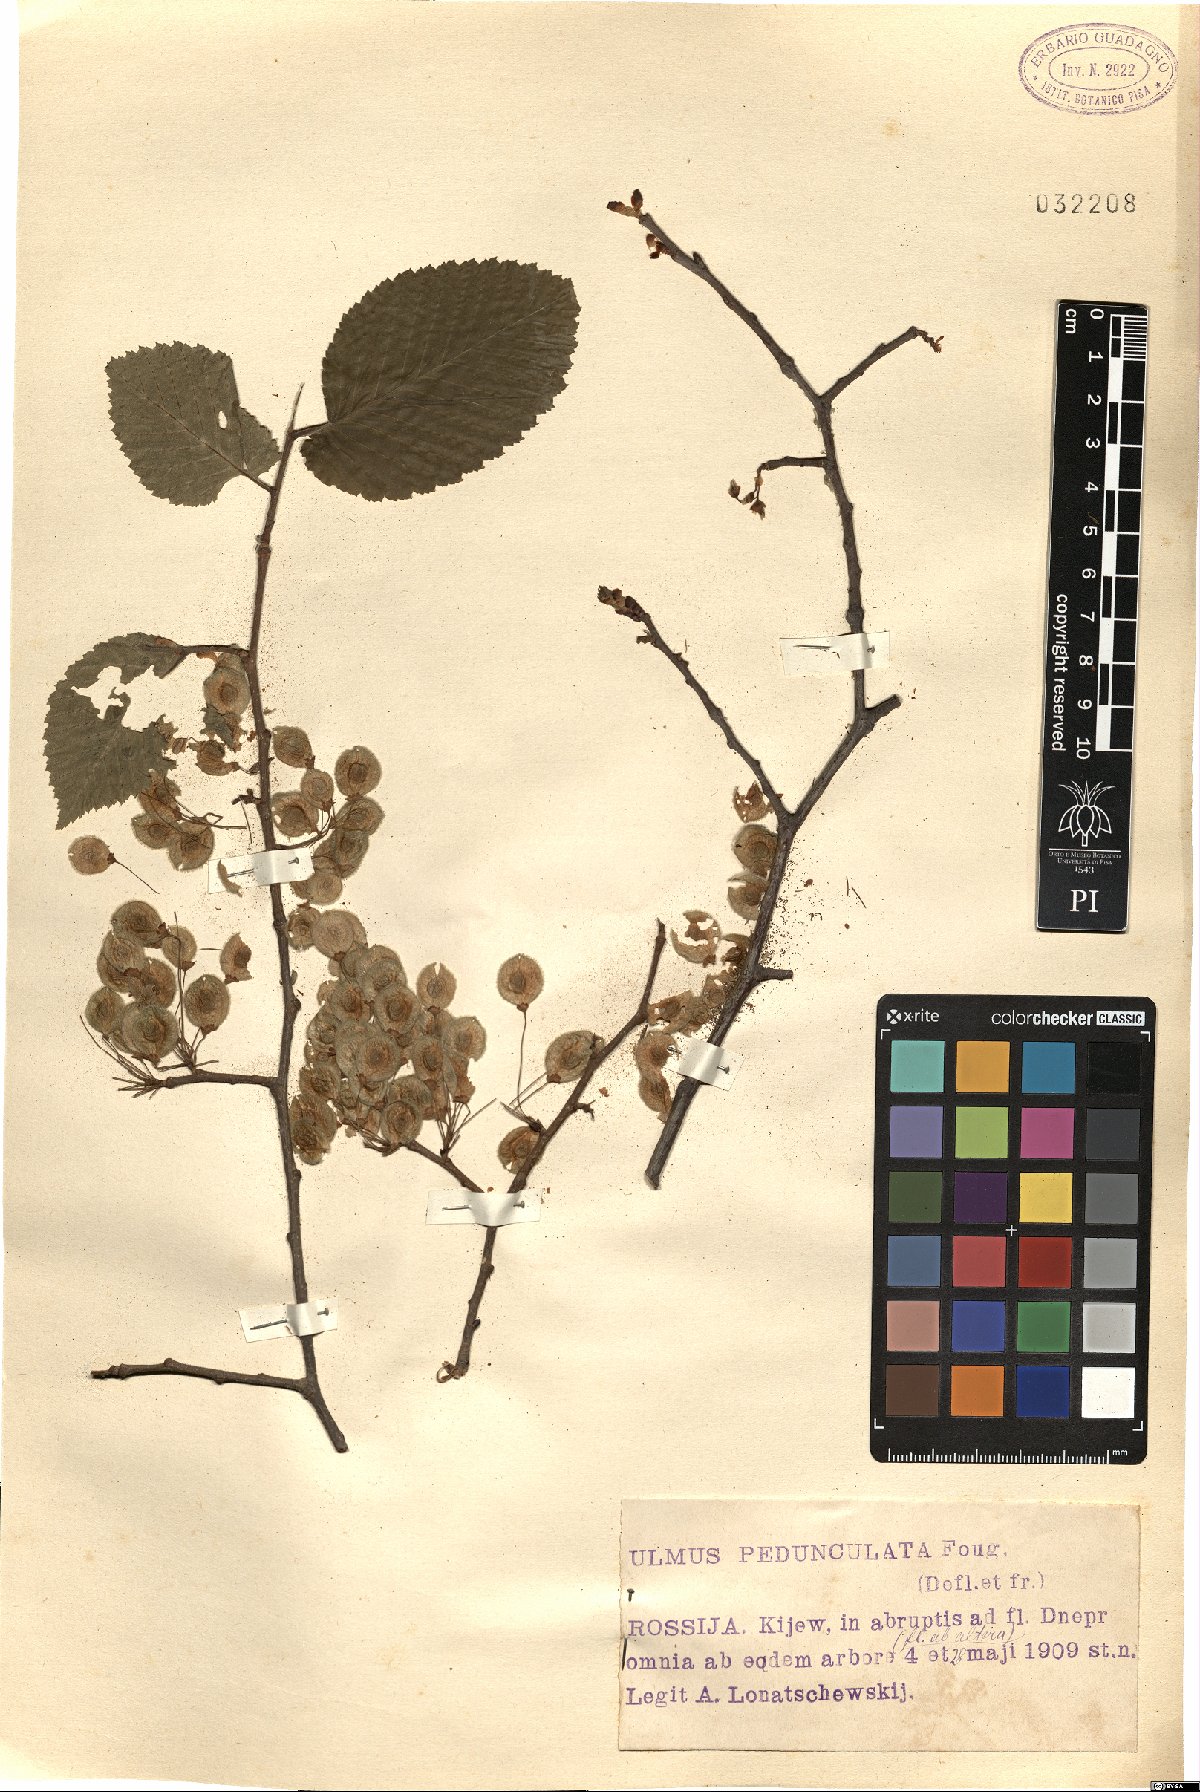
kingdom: Plantae
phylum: Tracheophyta
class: Magnoliopsida
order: Rosales
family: Ulmaceae
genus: Ulmus
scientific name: Ulmus laevis
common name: European white-elm
